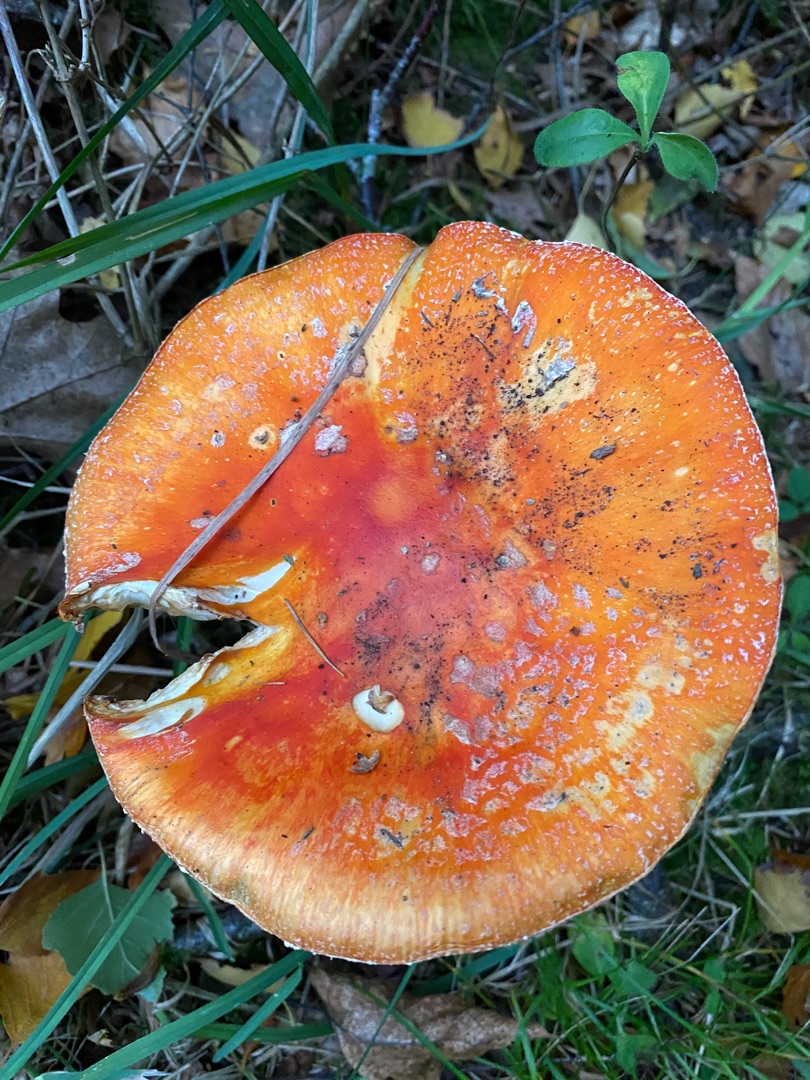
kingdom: Fungi
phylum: Basidiomycota
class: Agaricomycetes
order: Agaricales
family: Amanitaceae
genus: Amanita
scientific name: Amanita muscaria
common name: Rød fluesvamp
